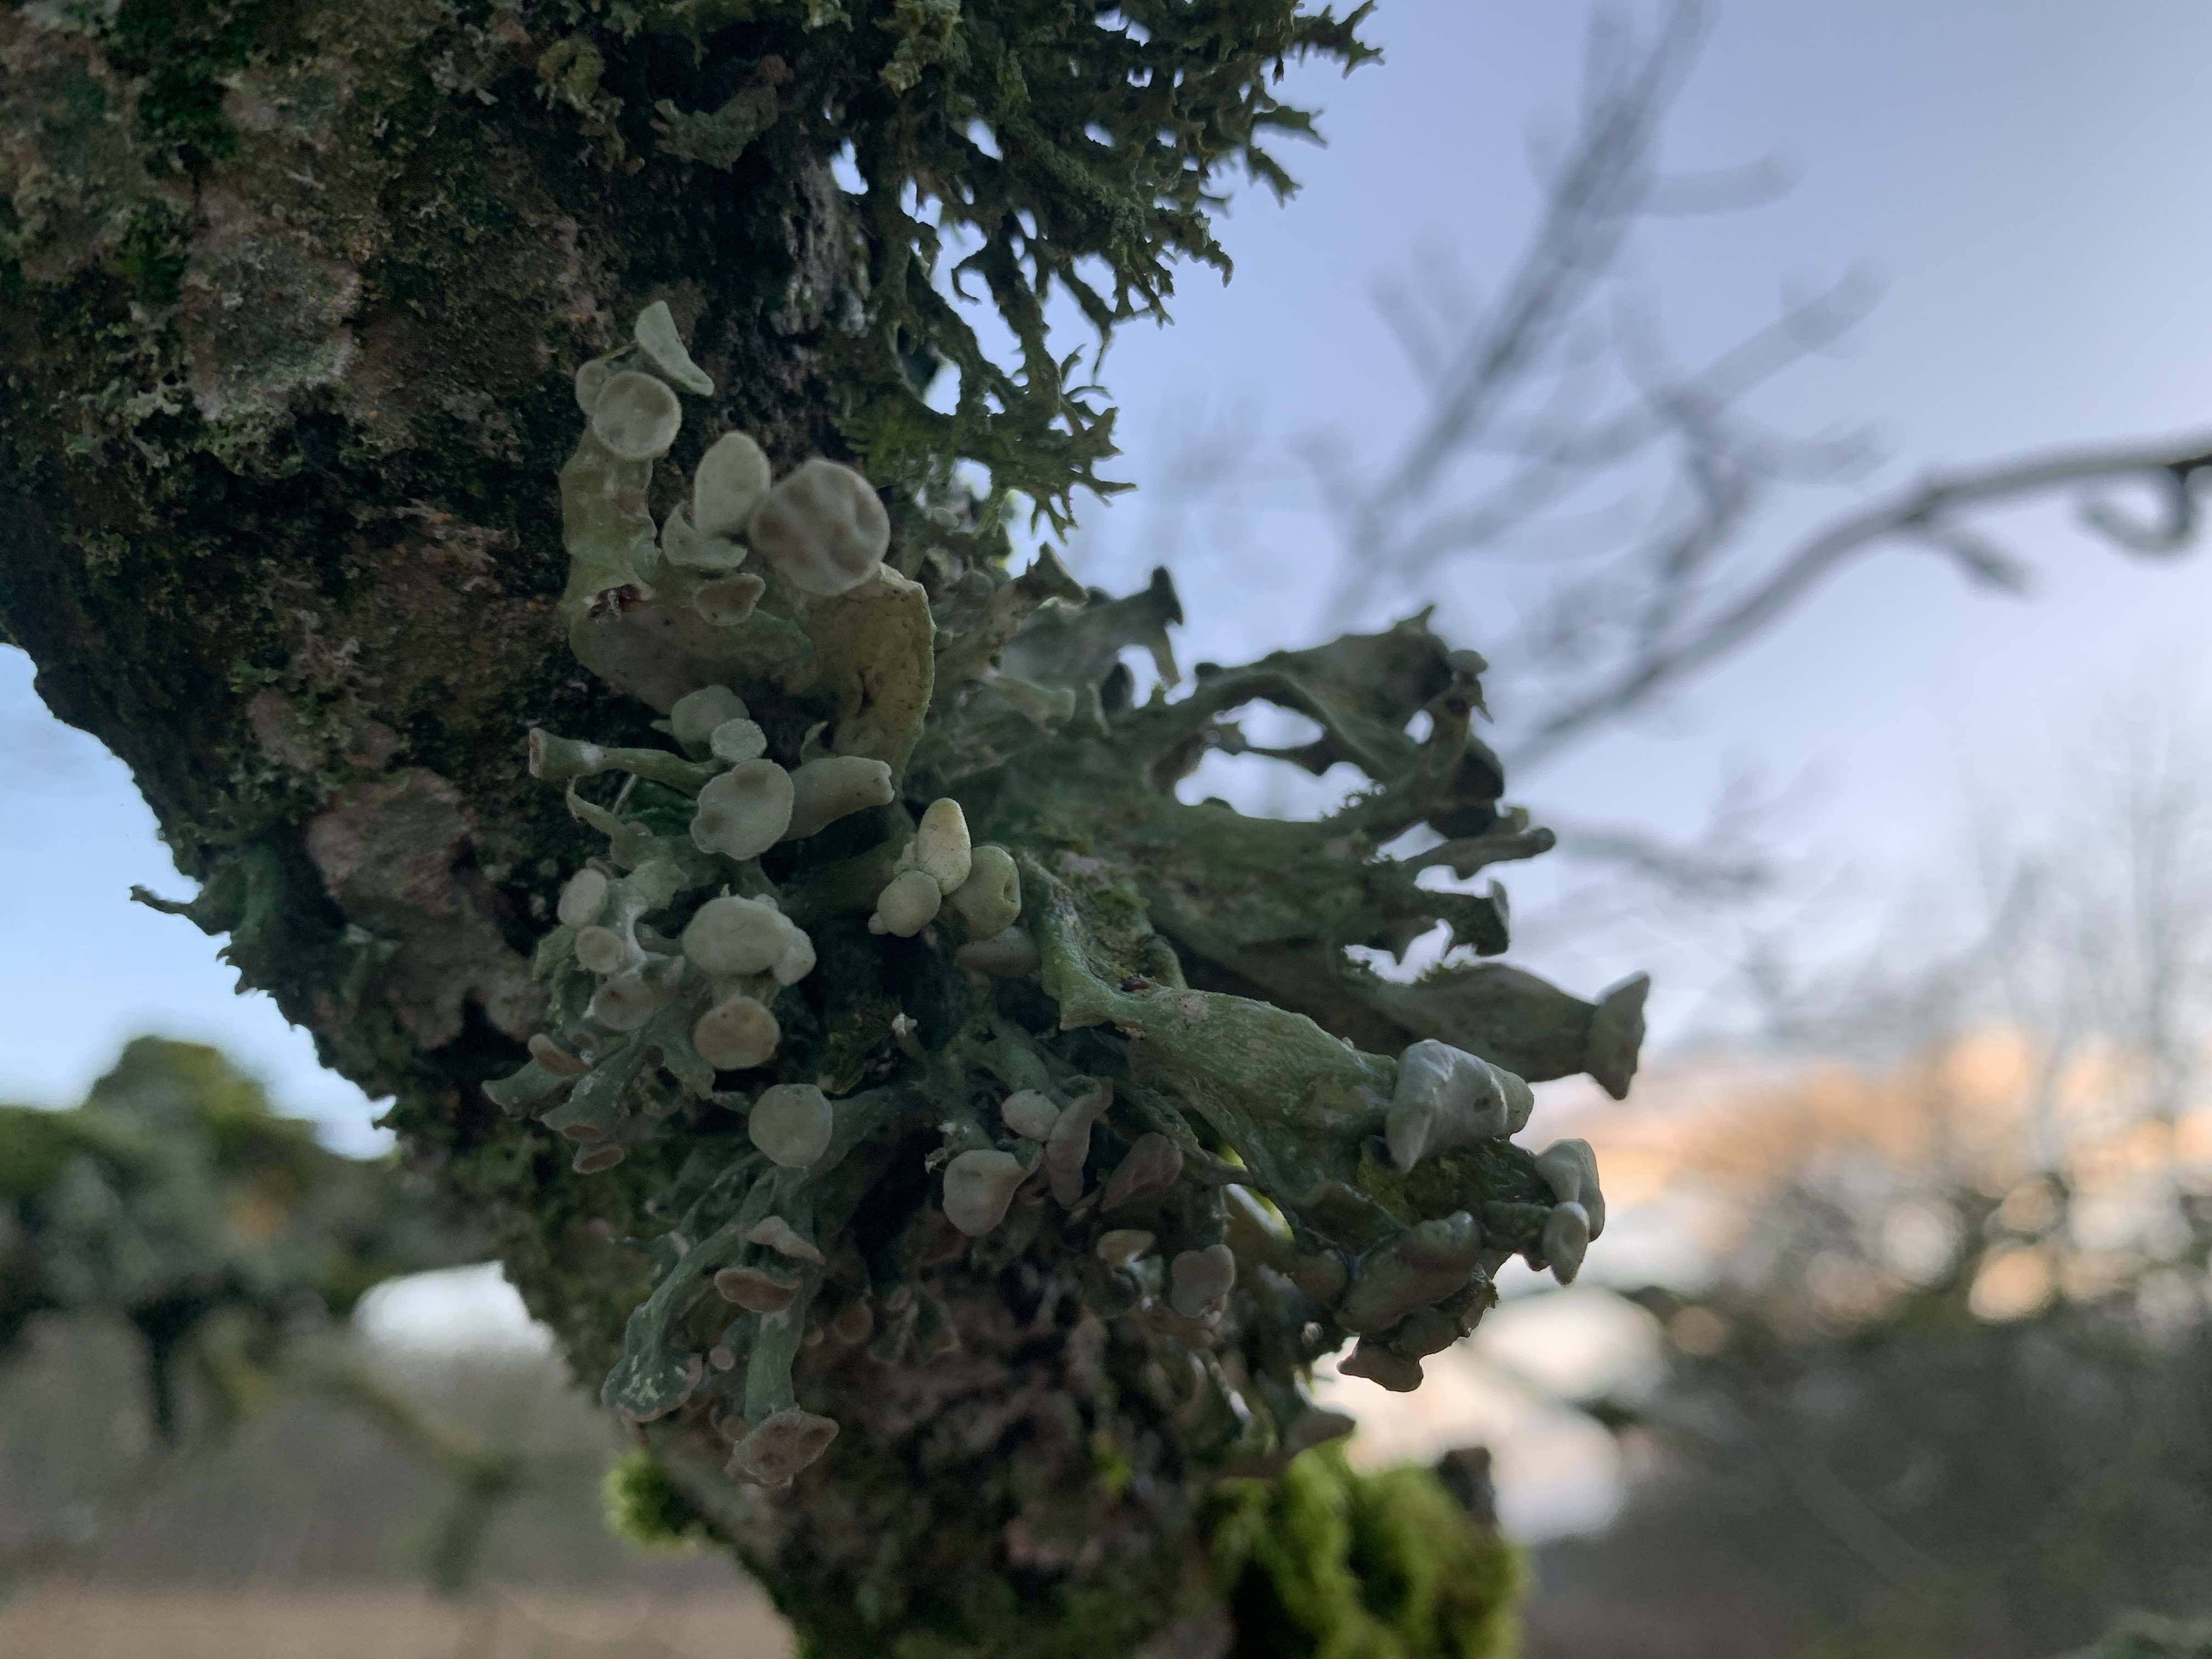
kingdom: Fungi
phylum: Ascomycota
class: Lecanoromycetes
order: Lecanorales
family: Ramalinaceae
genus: Ramalina
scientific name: Ramalina fastigiata
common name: tue-grenlav
